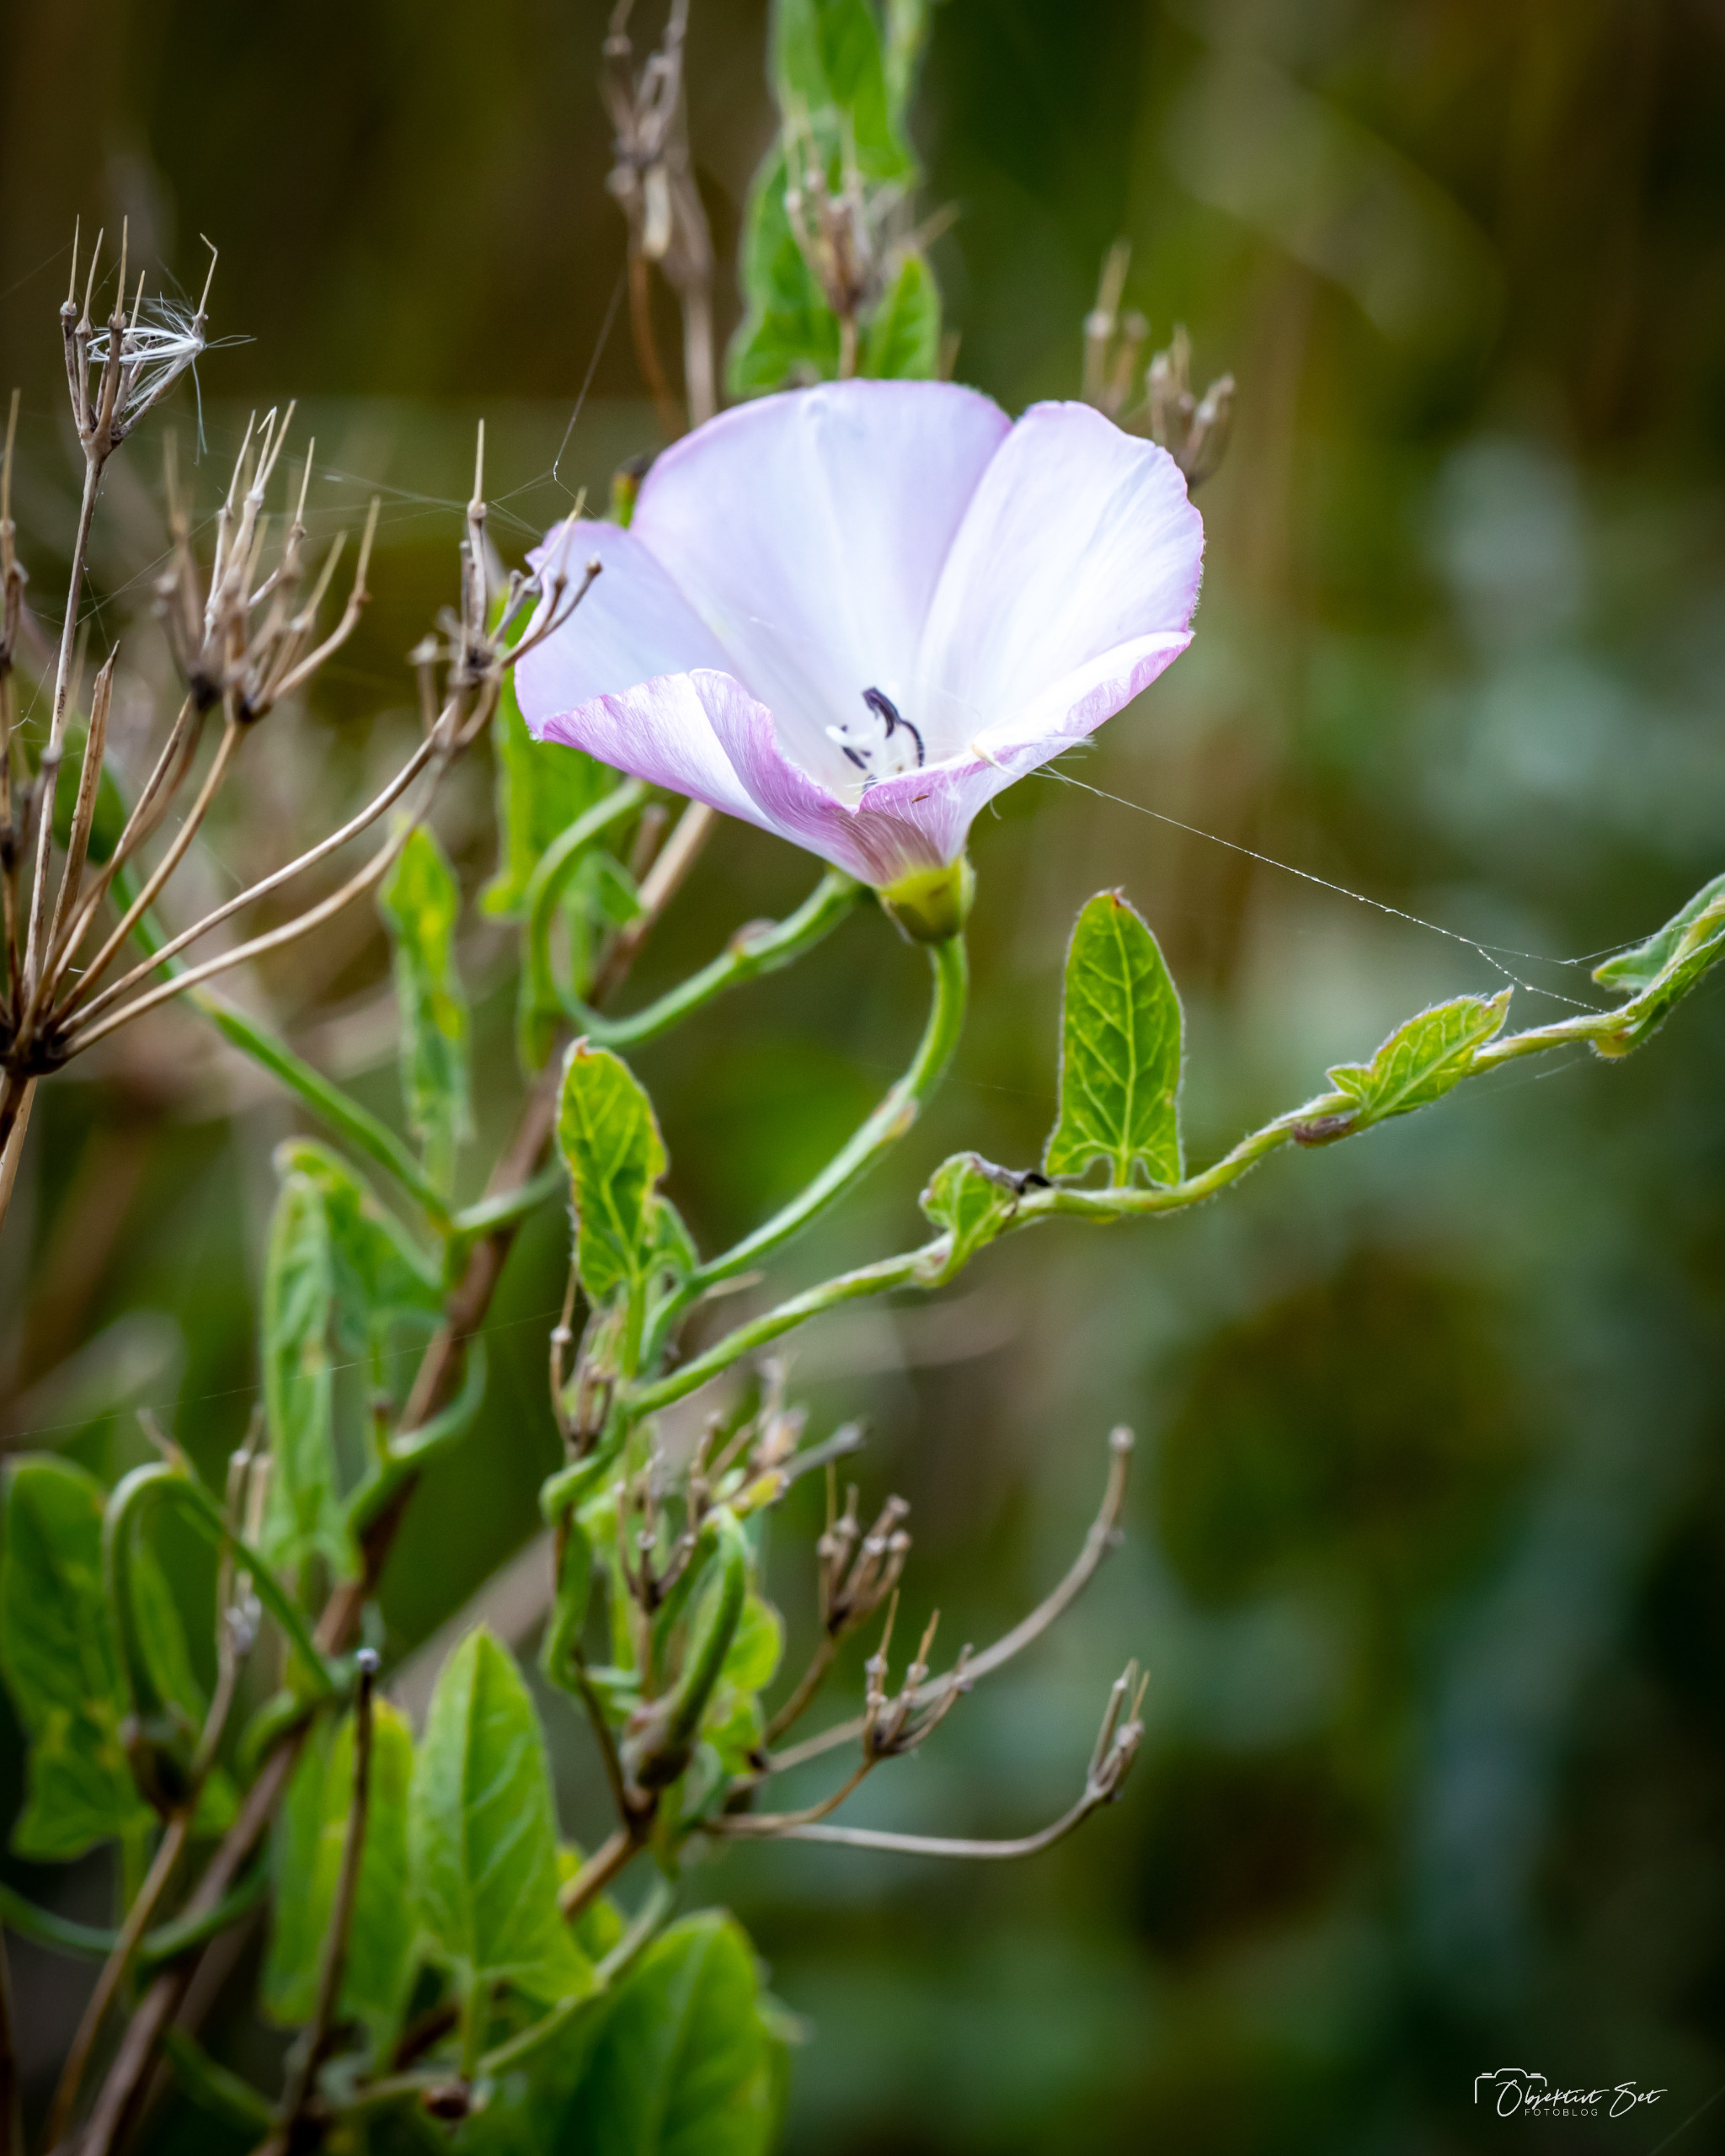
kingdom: Plantae
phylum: Tracheophyta
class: Magnoliopsida
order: Solanales
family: Convolvulaceae
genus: Convolvulus
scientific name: Convolvulus arvensis
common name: Ager-snerle
